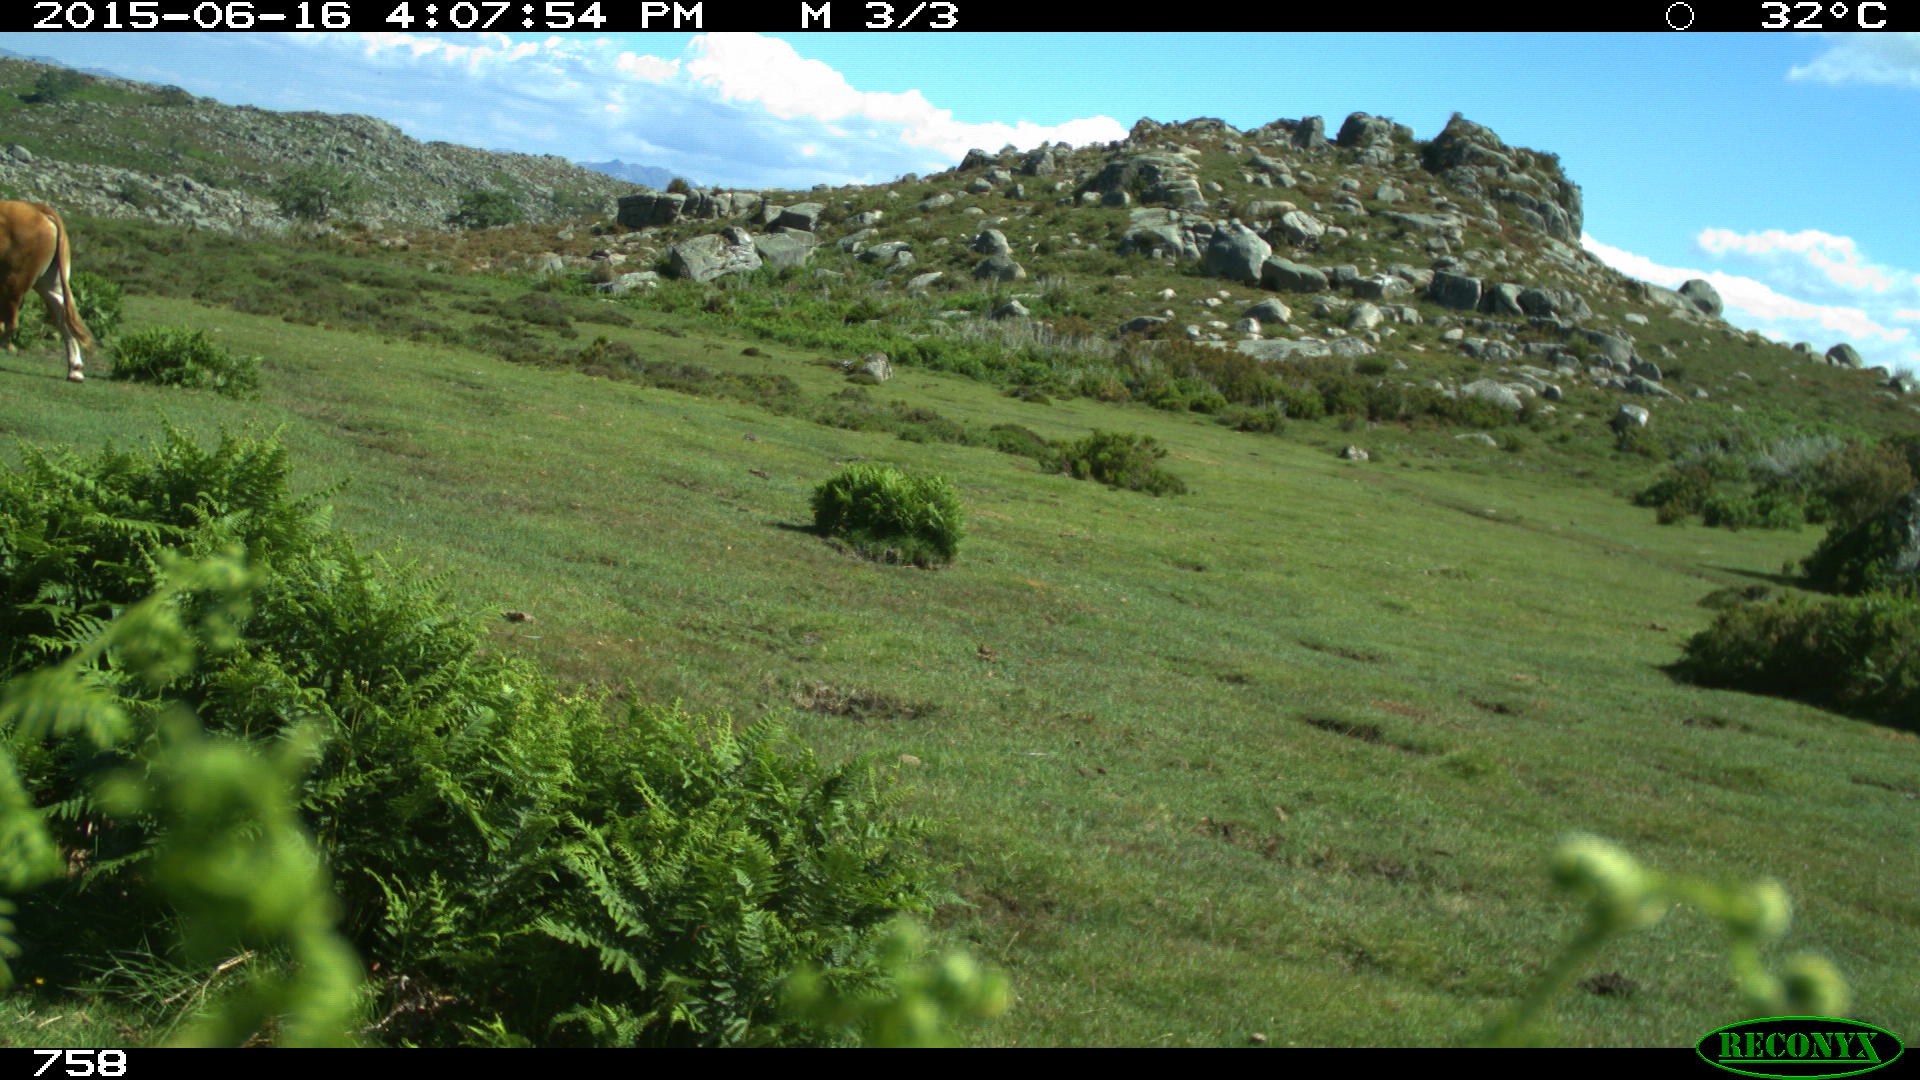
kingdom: Animalia
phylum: Chordata
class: Mammalia
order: Artiodactyla
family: Bovidae
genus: Bos
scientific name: Bos taurus
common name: Domesticated cattle
